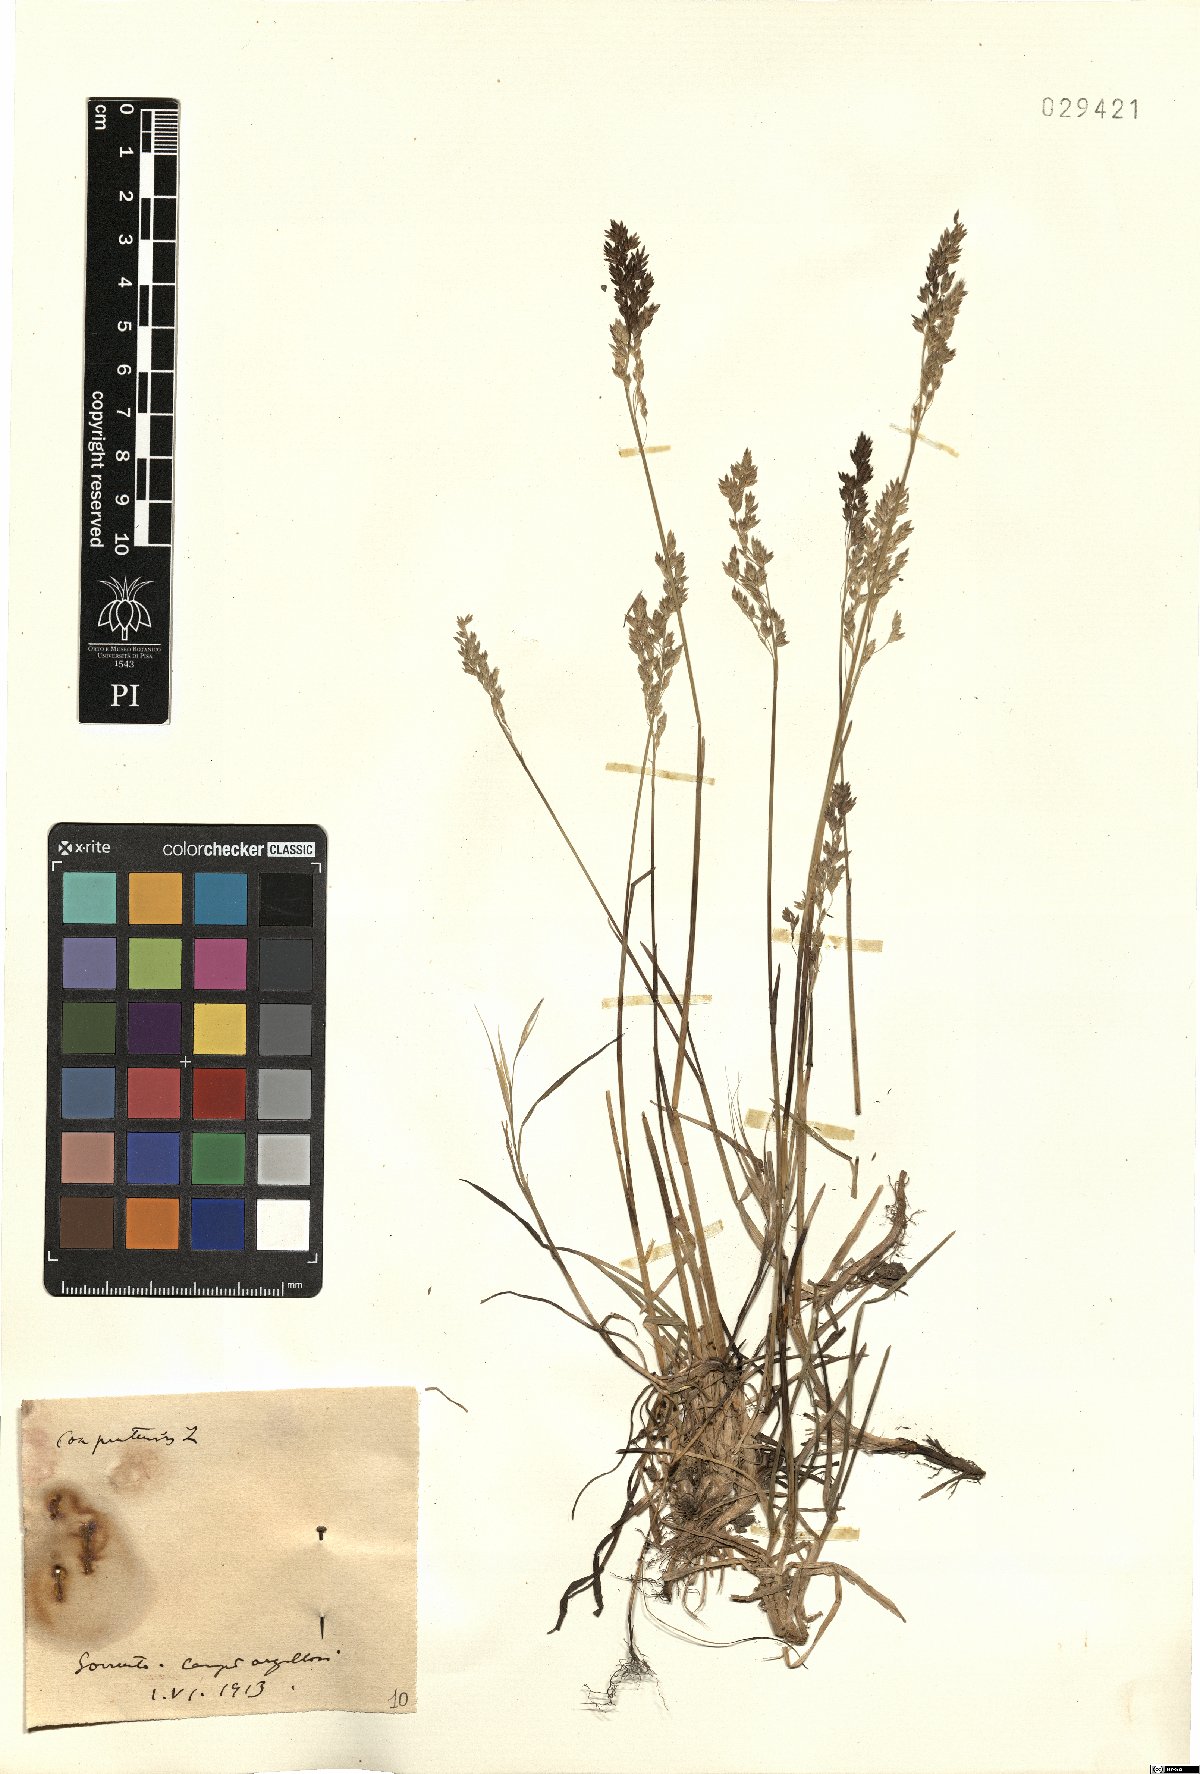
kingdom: Plantae
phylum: Tracheophyta
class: Liliopsida
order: Poales
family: Poaceae
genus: Poa
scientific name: Poa pratensis
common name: Kentucky bluegrass
